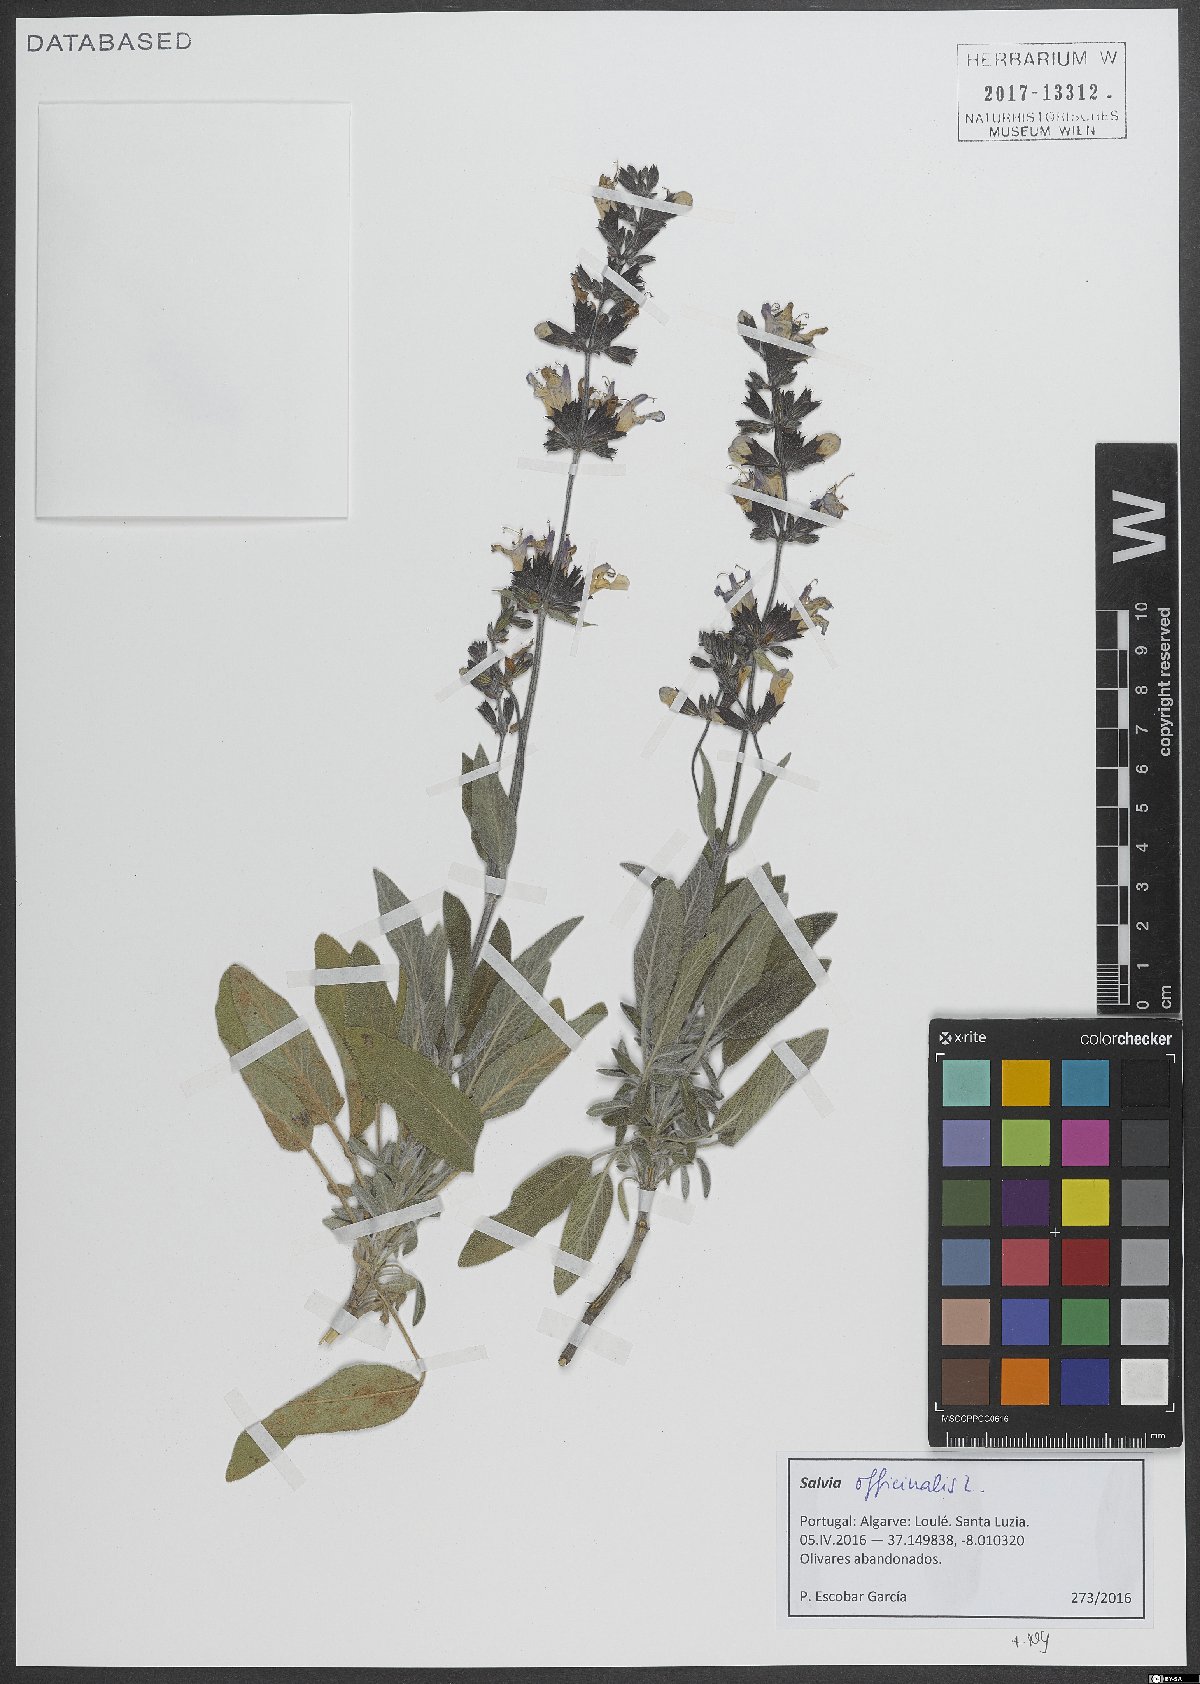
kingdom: Plantae
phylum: Tracheophyta
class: Magnoliopsida
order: Lamiales
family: Lamiaceae
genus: Salvia
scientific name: Salvia officinalis
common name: Sage
